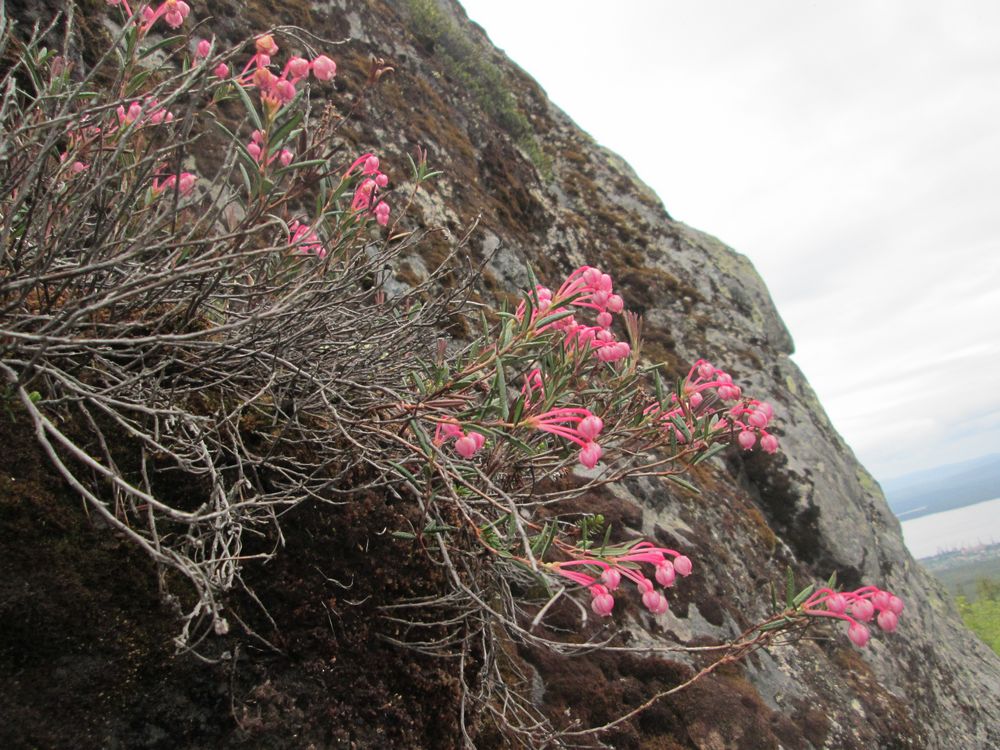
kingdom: Plantae
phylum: Tracheophyta
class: Magnoliopsida
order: Ericales
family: Ericaceae
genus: Andromeda
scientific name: Andromeda polifolia
